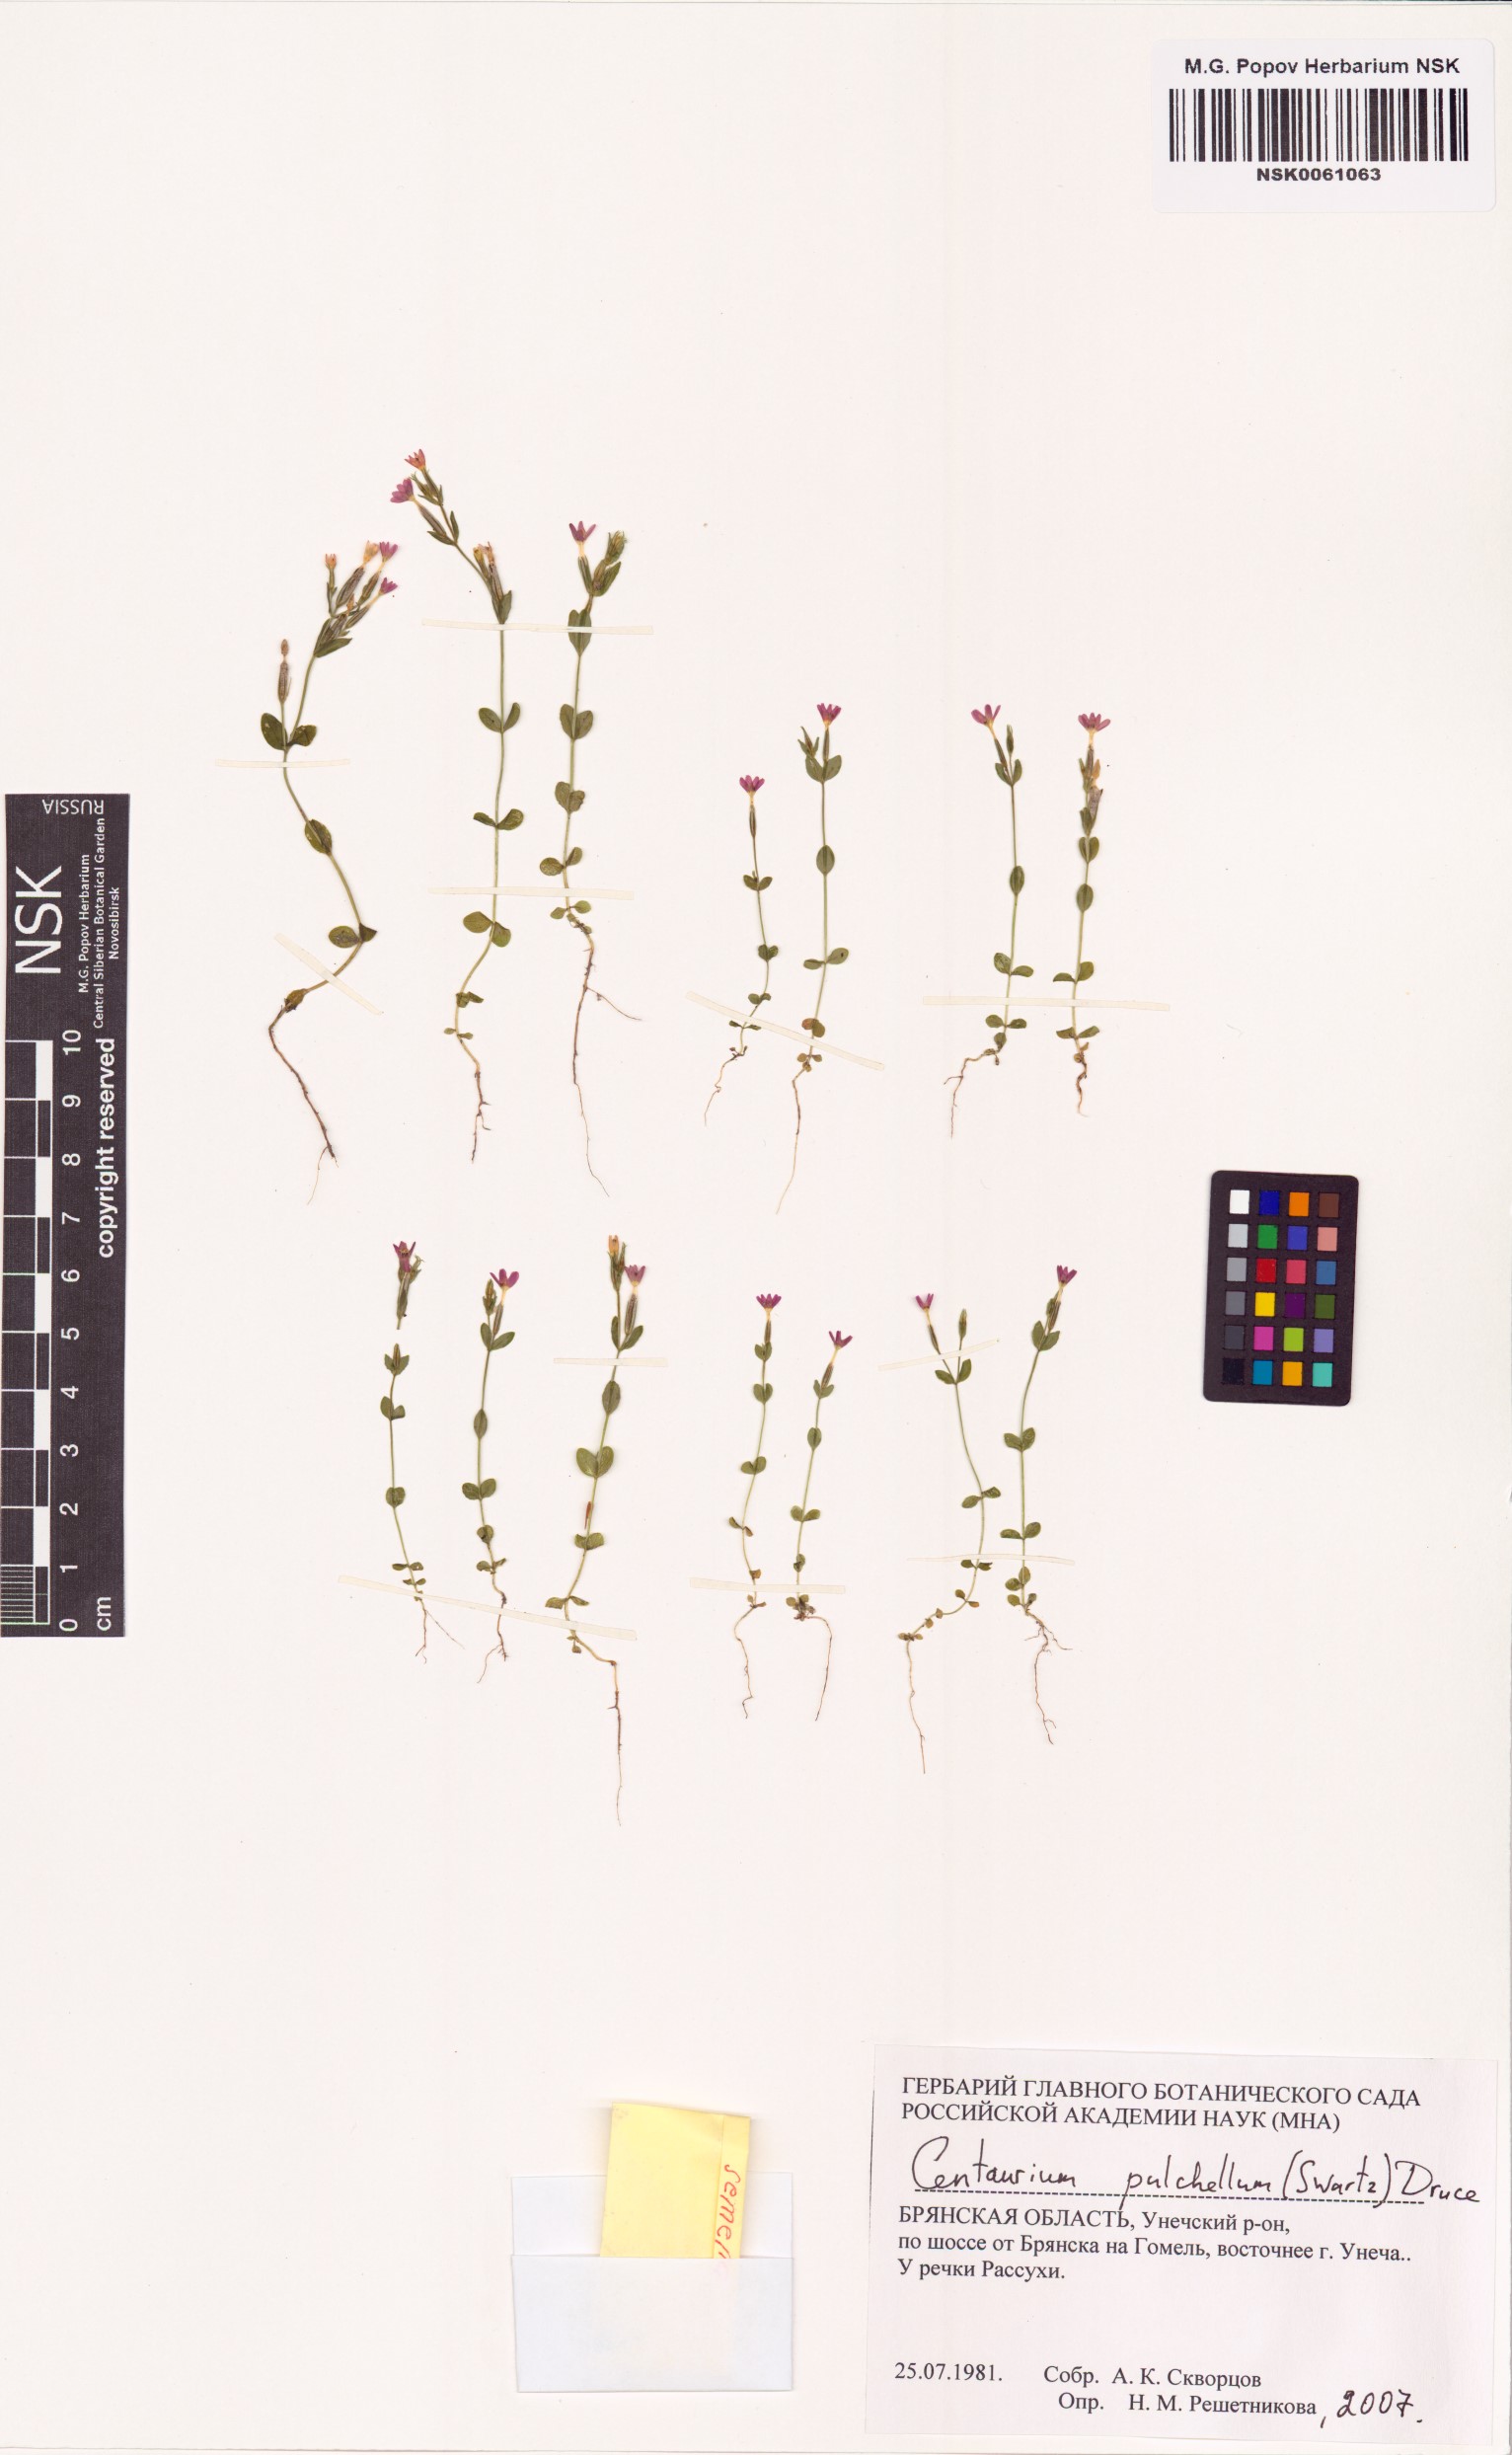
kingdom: Plantae
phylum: Tracheophyta
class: Magnoliopsida
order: Gentianales
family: Gentianaceae
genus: Centaurium
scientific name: Centaurium pulchellum
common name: Lesser centaury
